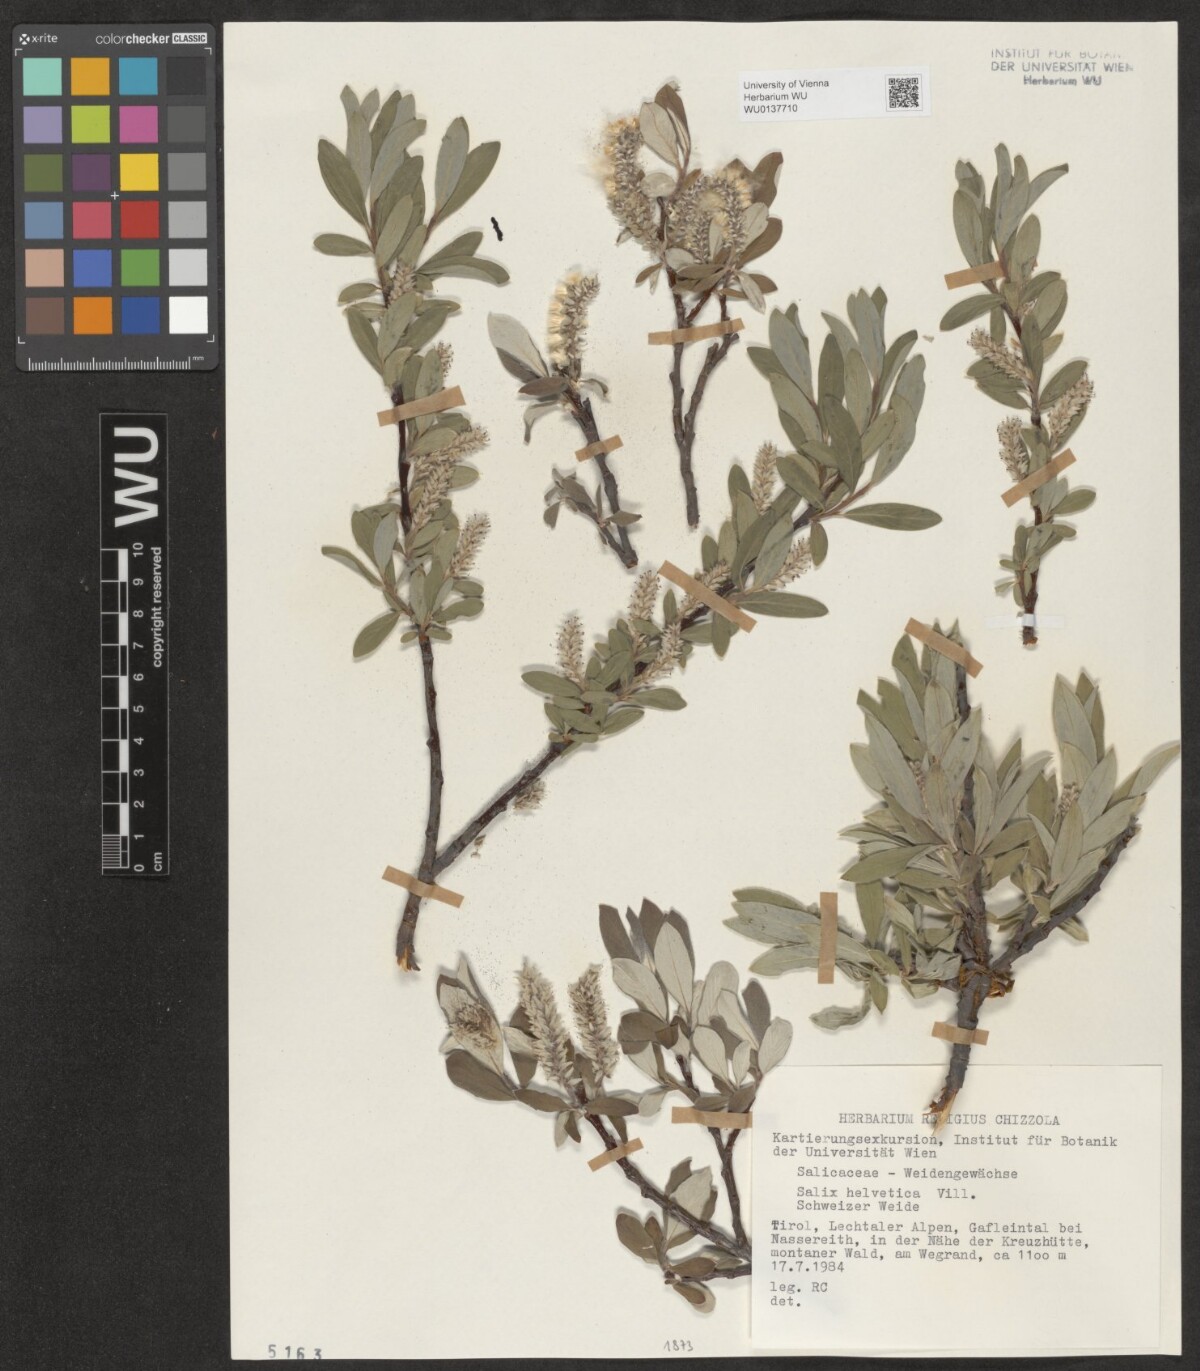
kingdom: Plantae
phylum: Tracheophyta
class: Magnoliopsida
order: Malpighiales
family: Salicaceae
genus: Salix
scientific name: Salix helvetica
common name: Swiss willow
